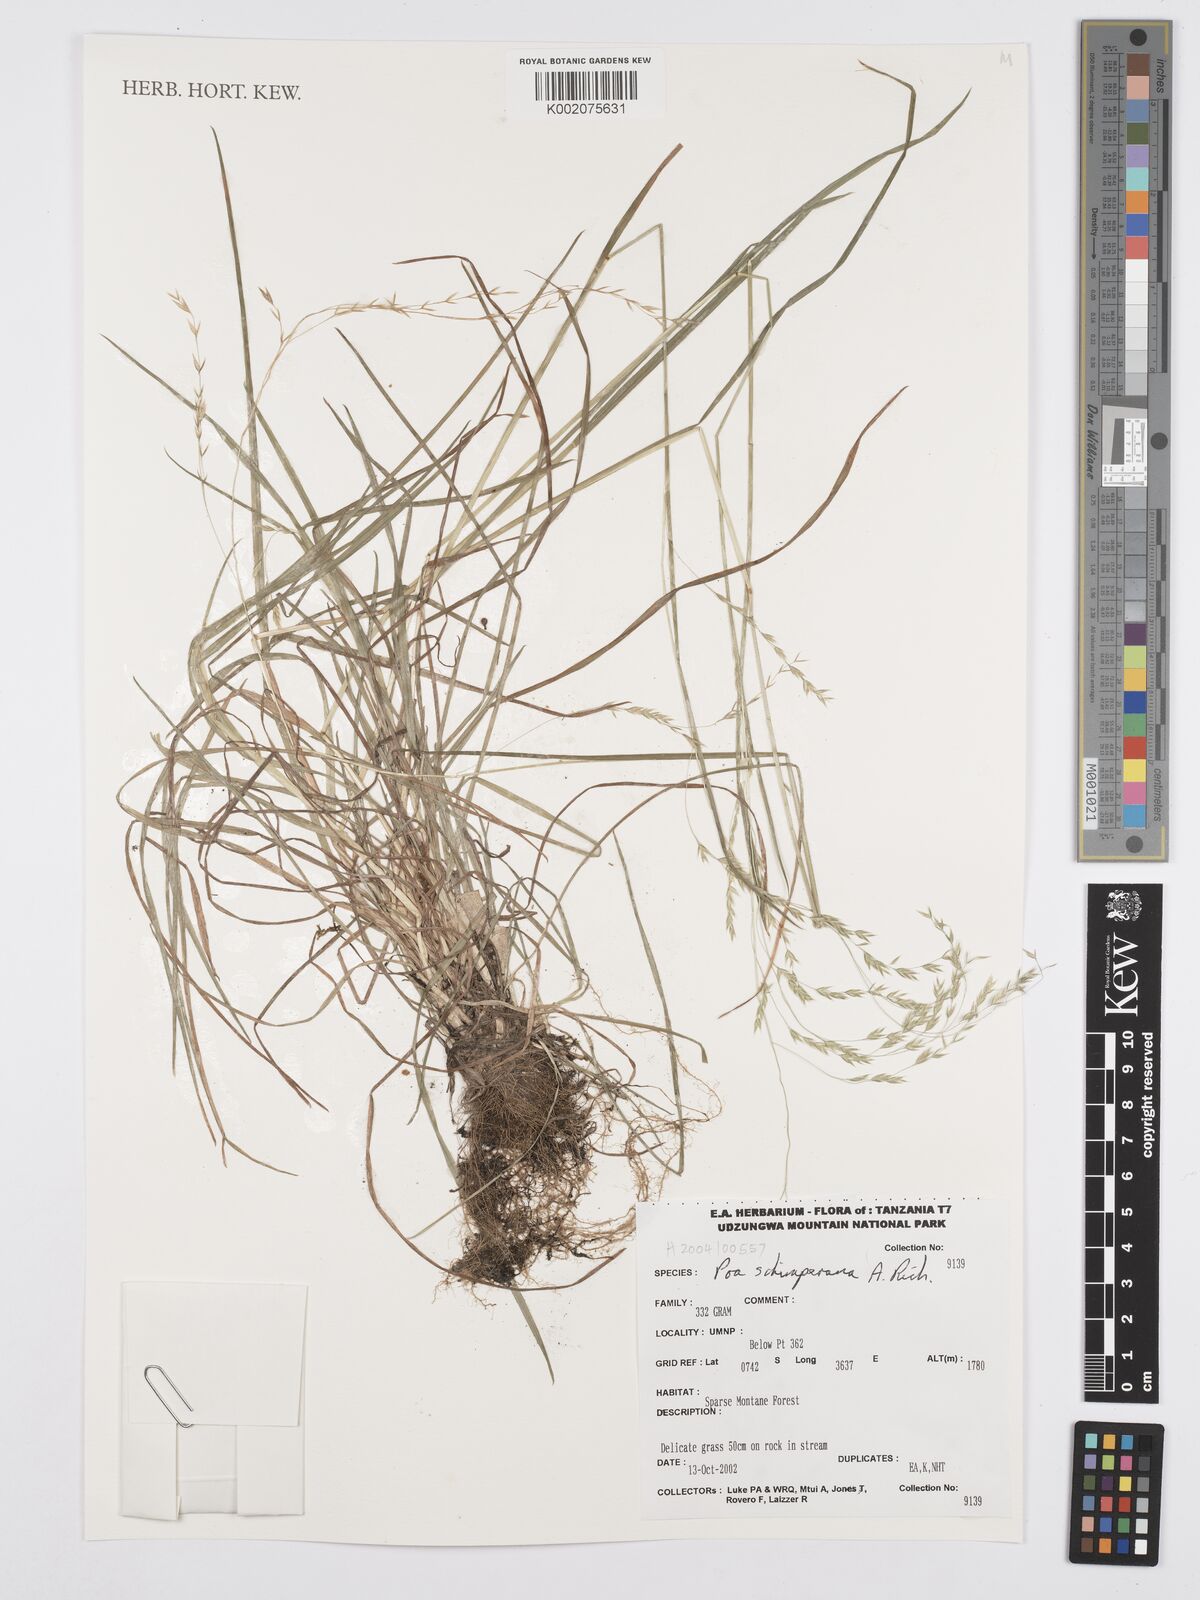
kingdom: Plantae
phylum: Tracheophyta
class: Liliopsida
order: Poales
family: Poaceae
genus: Poa
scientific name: Poa schimperiana
